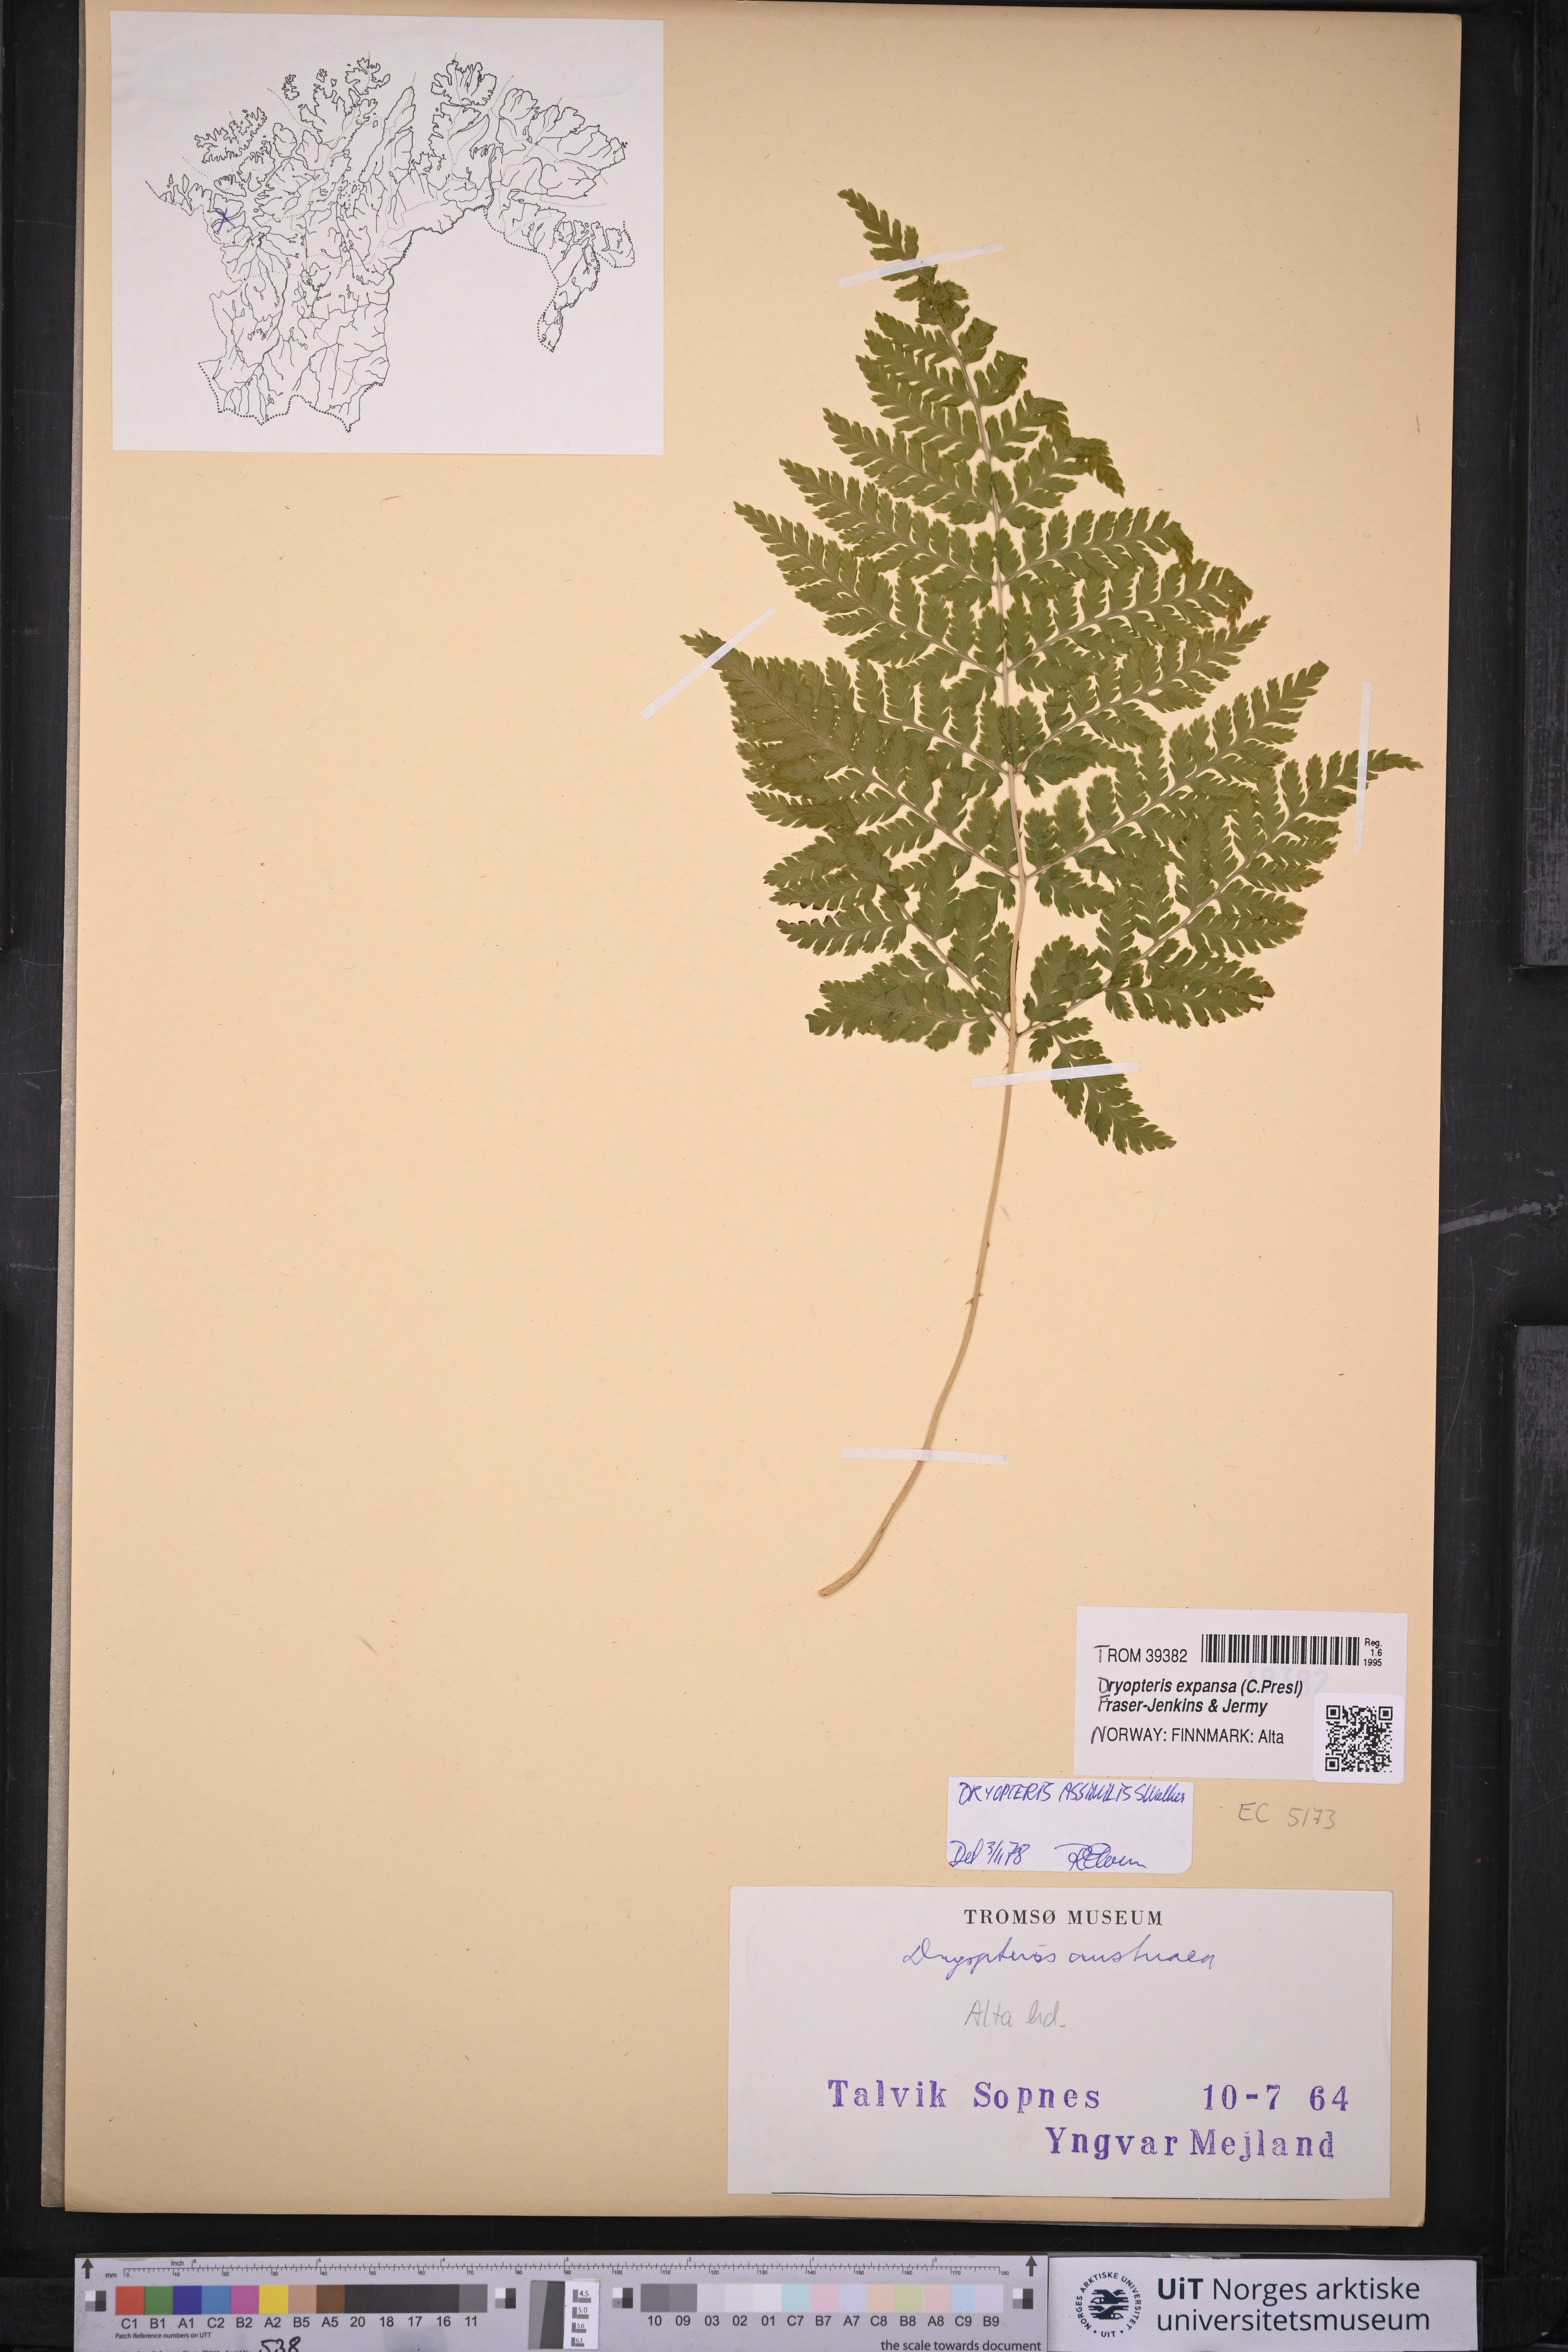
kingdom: Plantae
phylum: Tracheophyta
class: Polypodiopsida
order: Polypodiales
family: Dryopteridaceae
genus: Dryopteris
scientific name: Dryopteris expansa
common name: Northern buckler fern
